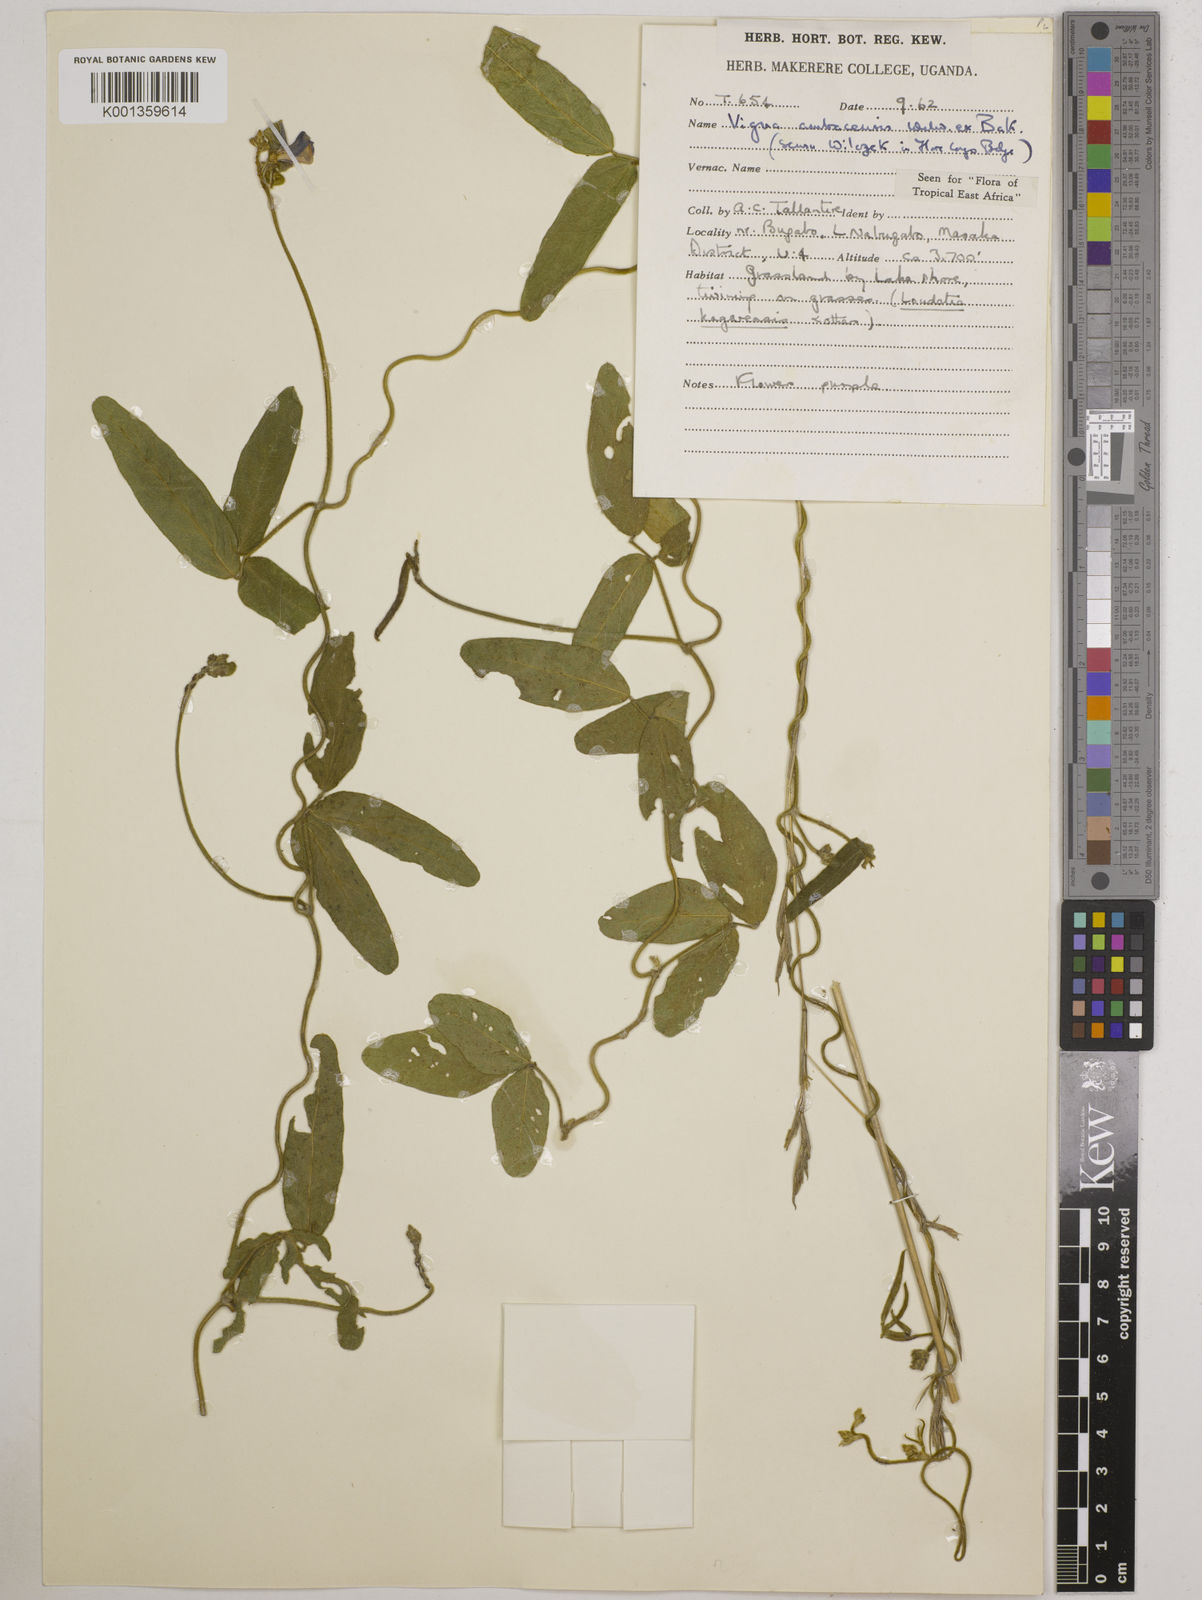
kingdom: Plantae
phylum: Tracheophyta
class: Magnoliopsida
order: Fabales
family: Fabaceae
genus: Vigna
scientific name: Vigna ambacensis
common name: Tsarkiyan zomo
